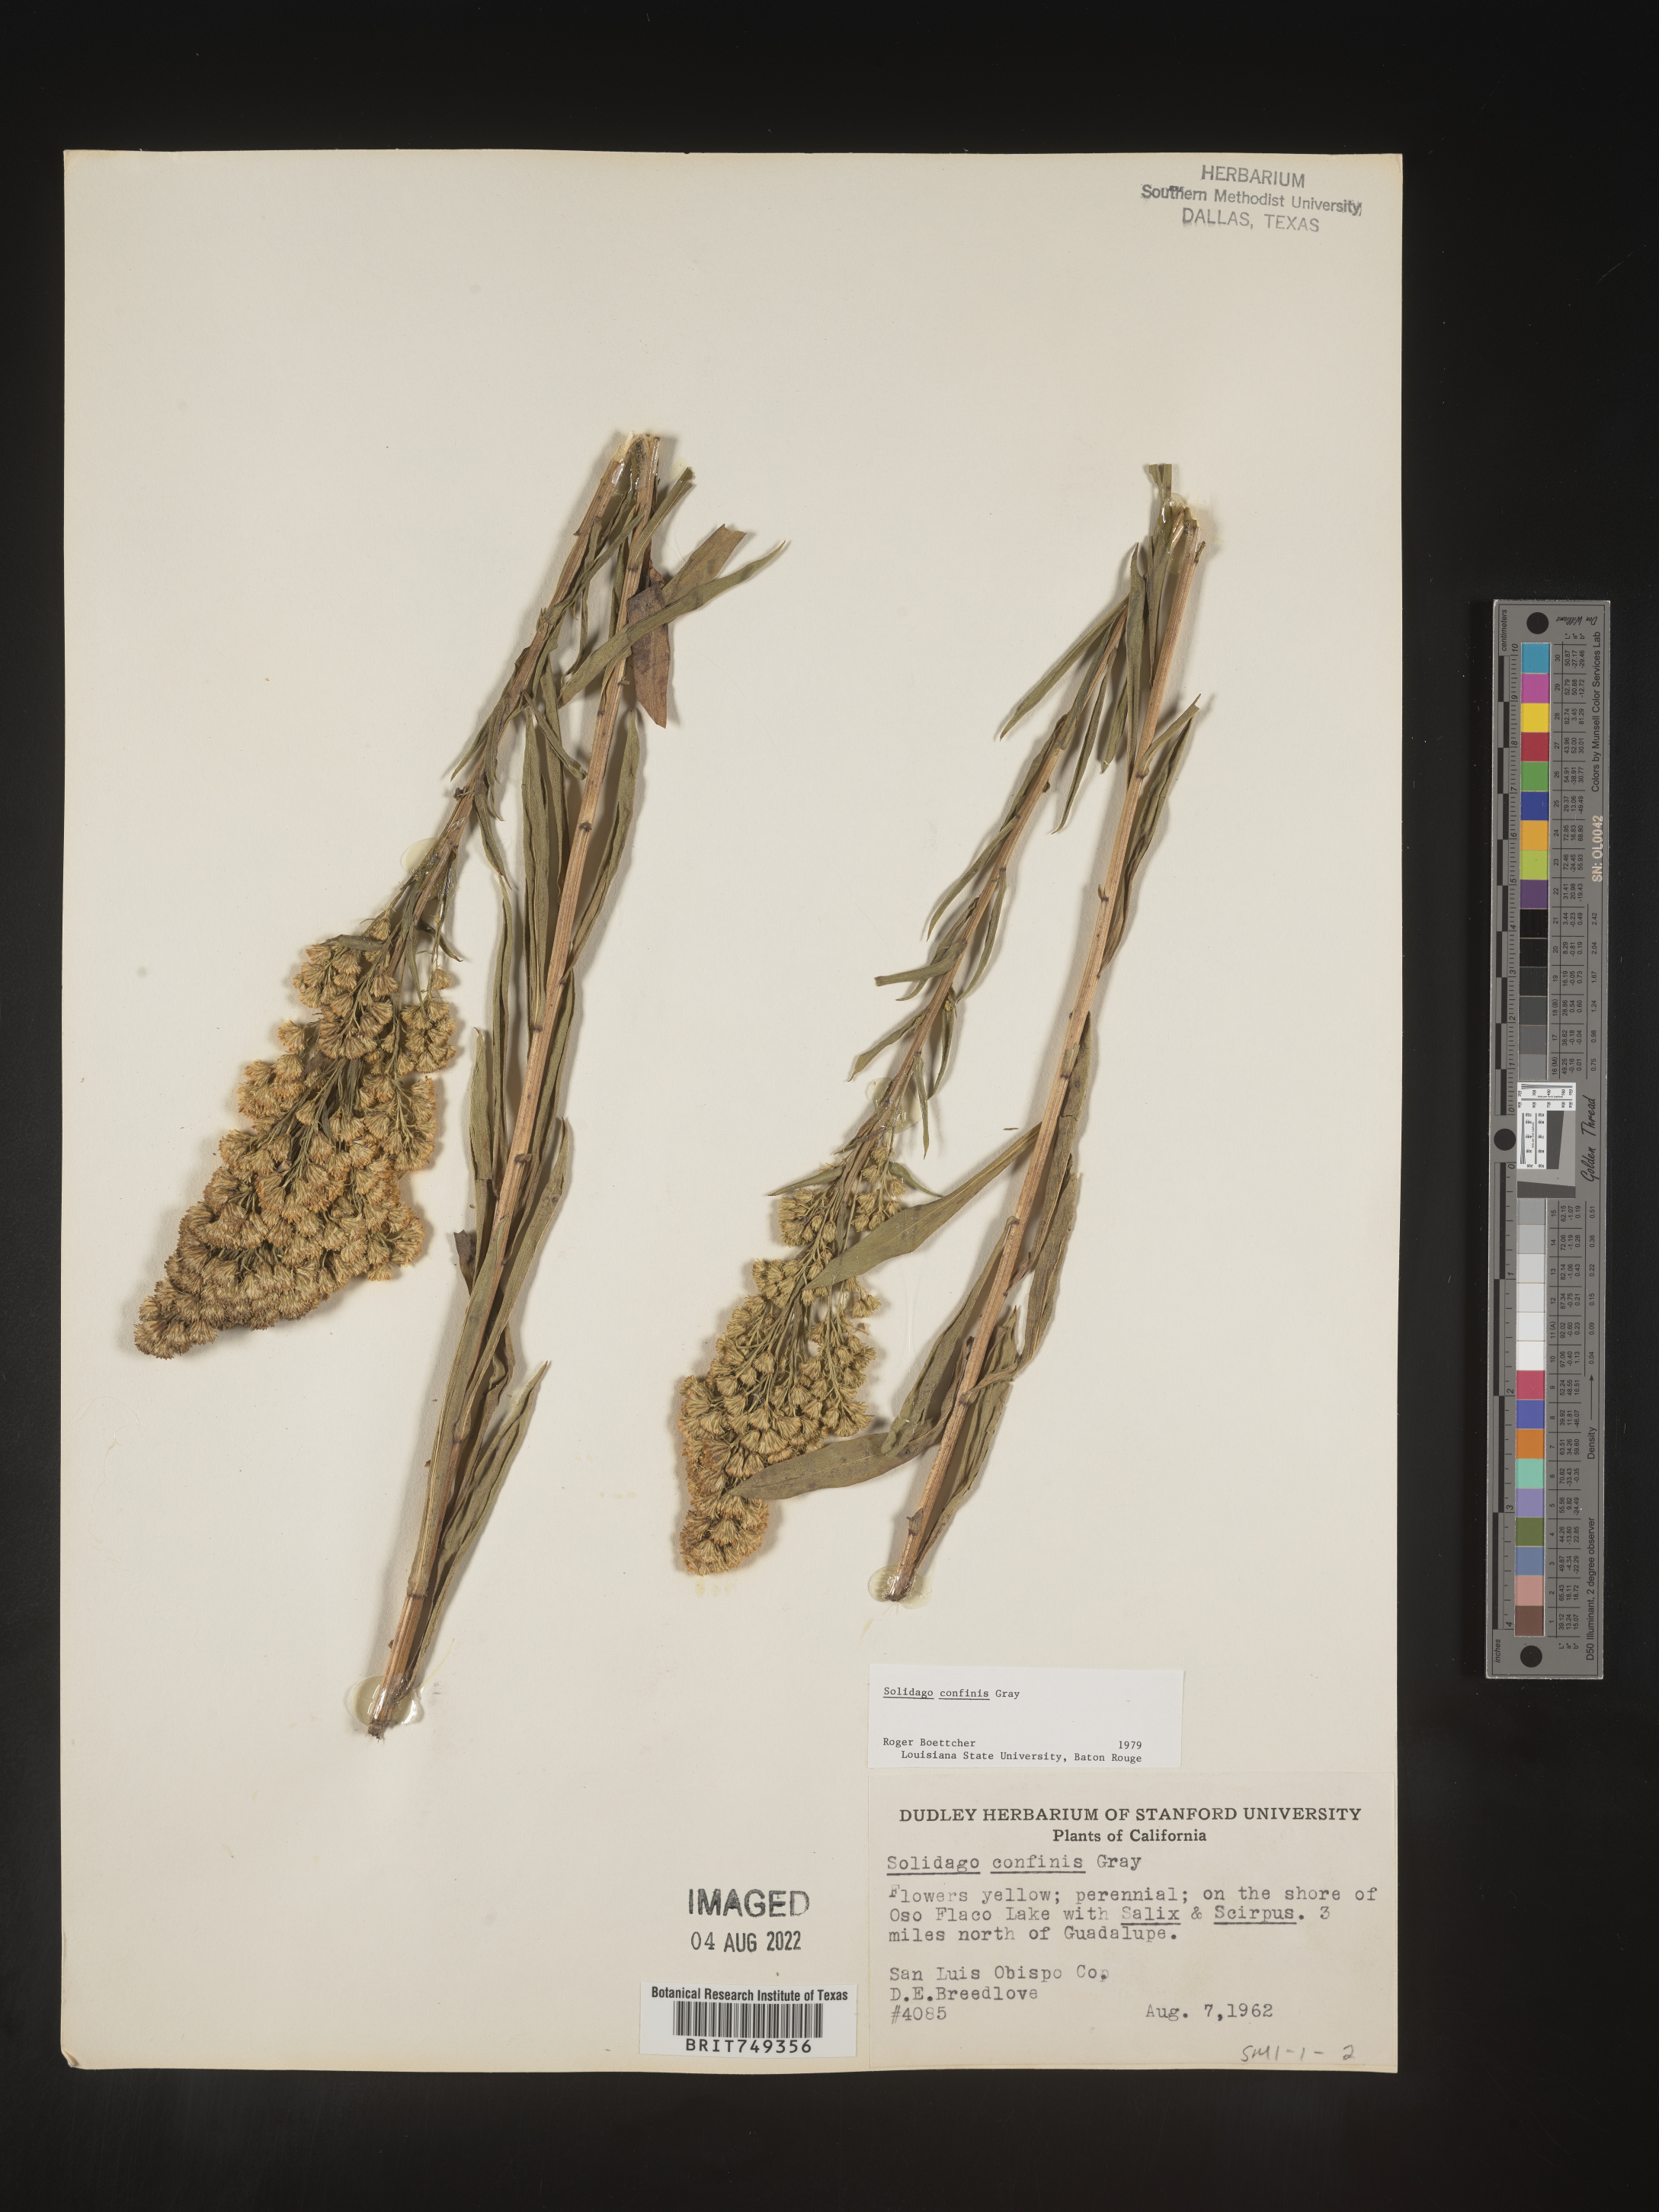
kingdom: Plantae
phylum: Tracheophyta
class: Magnoliopsida
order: Asterales
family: Asteraceae
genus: Solidago
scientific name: Solidago confinis
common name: Southern goldenrod
